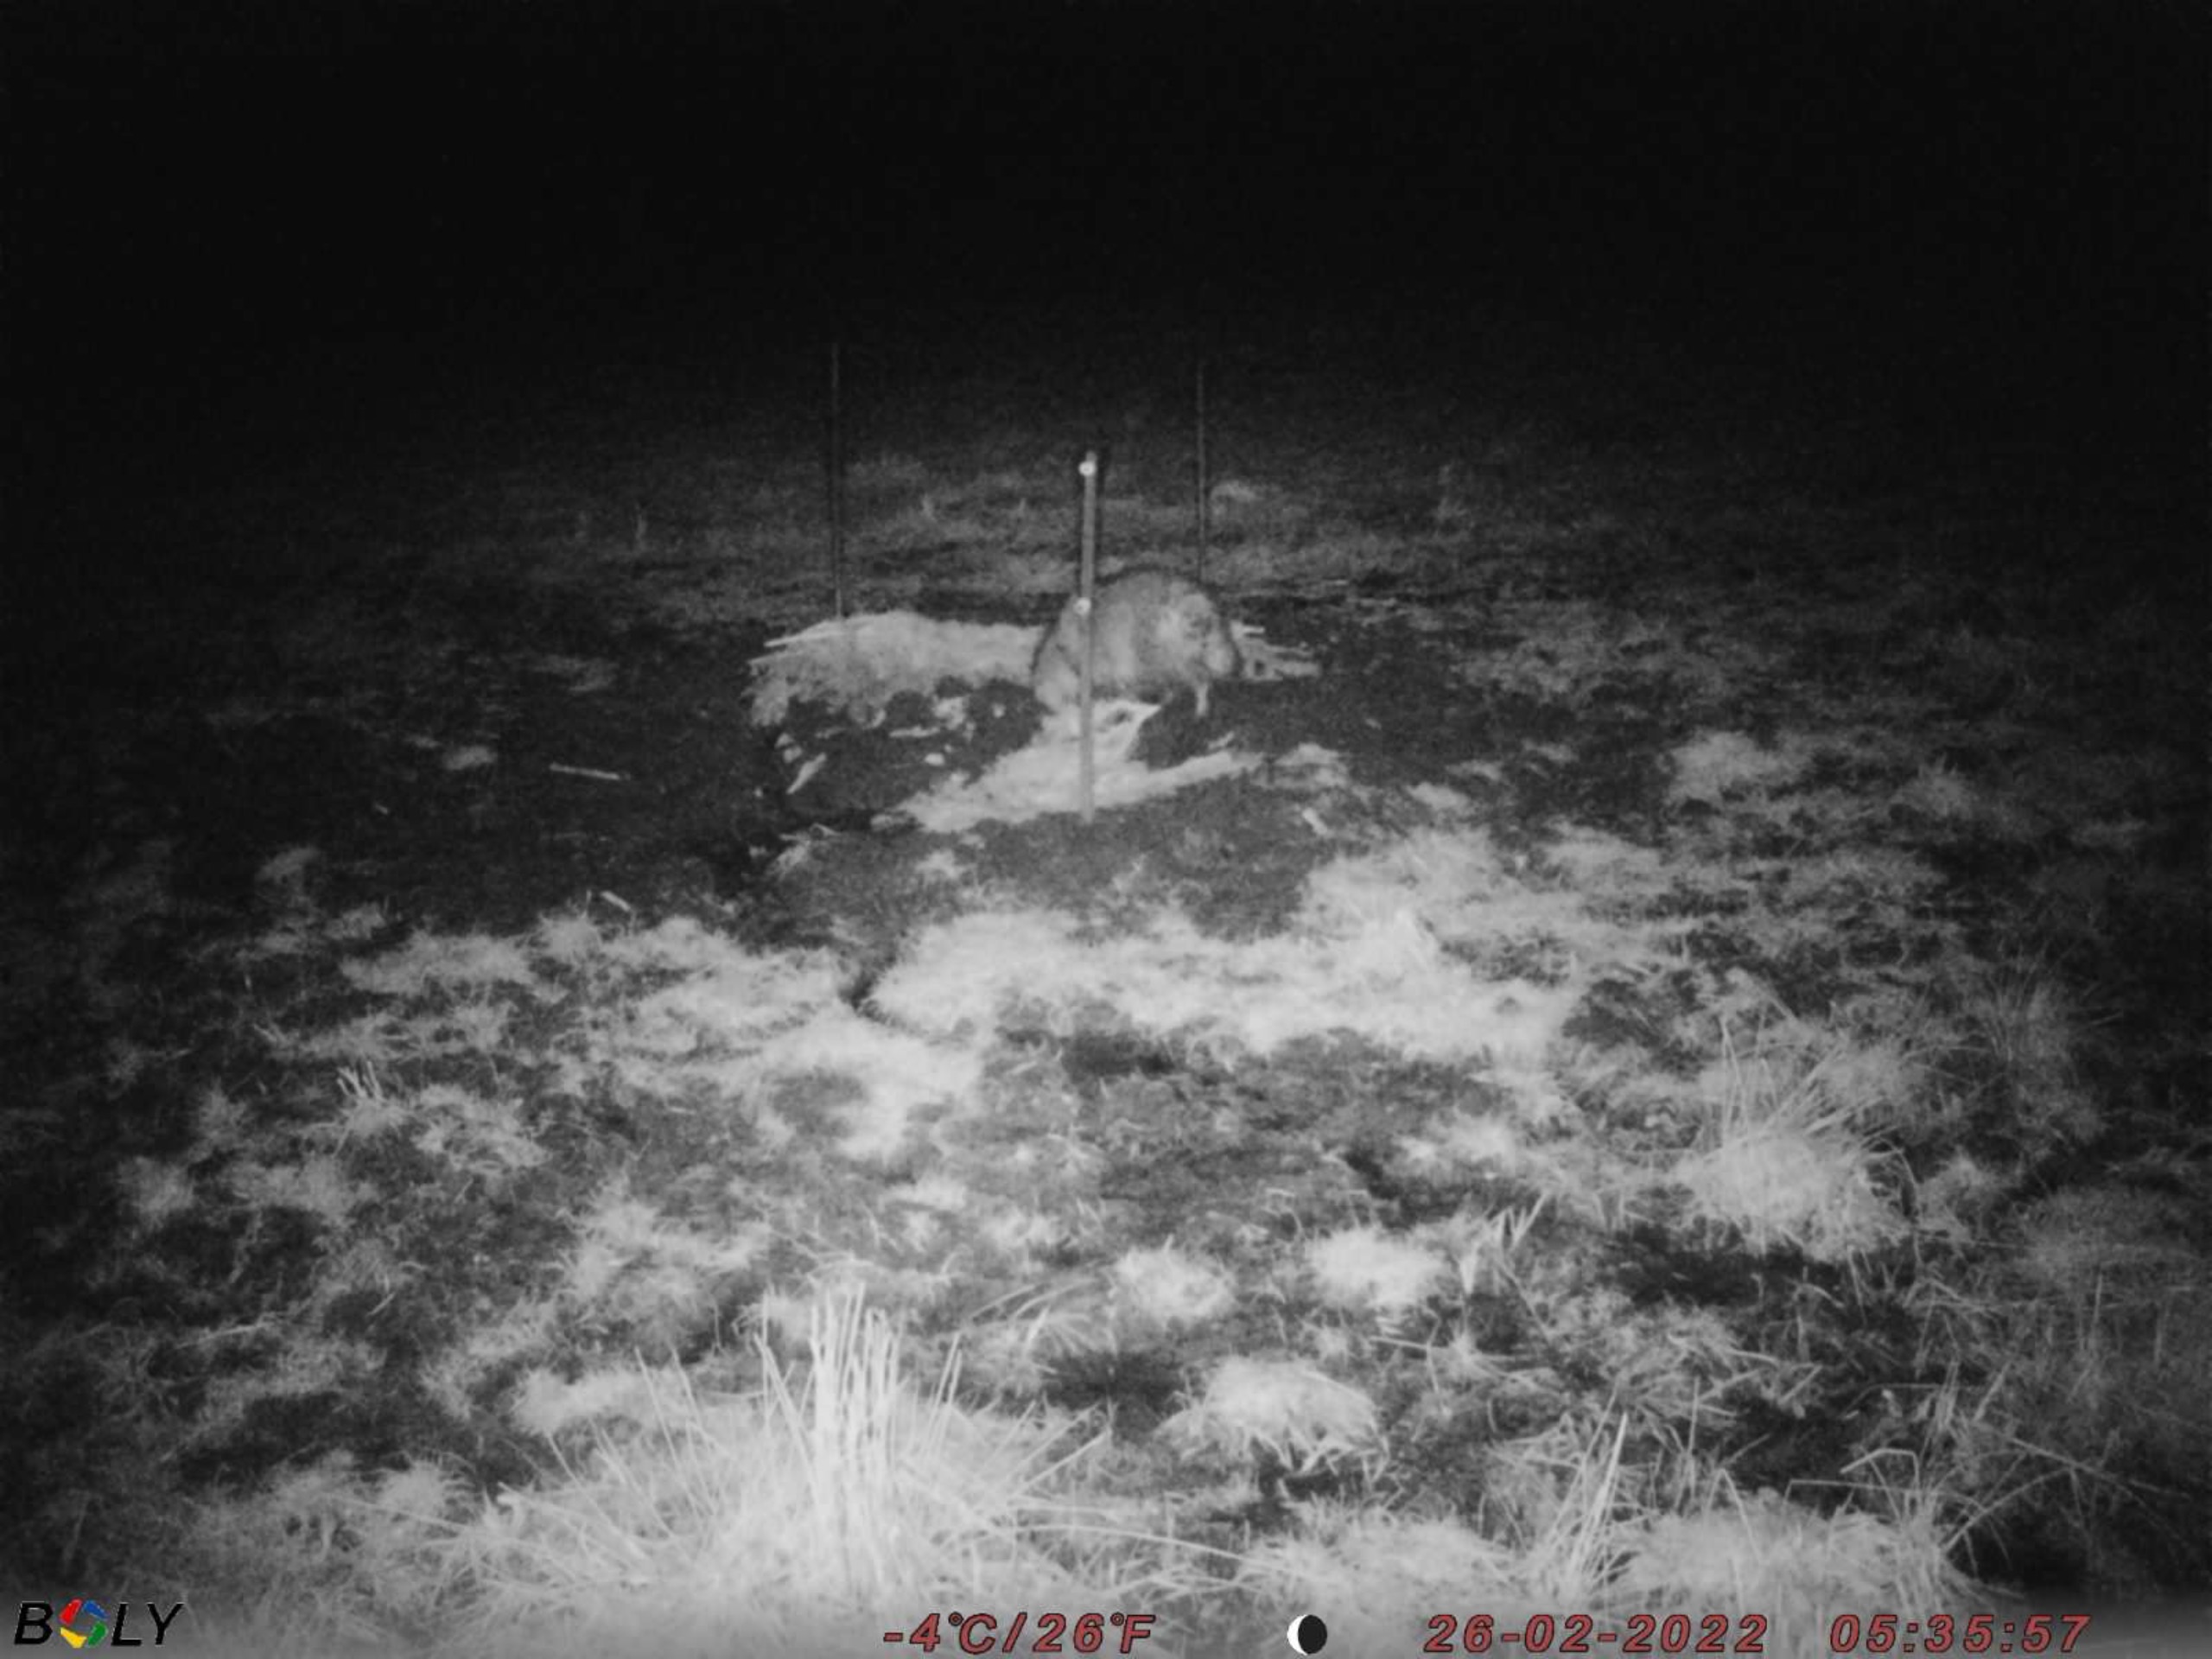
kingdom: Animalia
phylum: Chordata
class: Mammalia
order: Carnivora
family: Canidae
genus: Nyctereutes
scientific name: Nyctereutes procyonoides
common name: Mårhund
